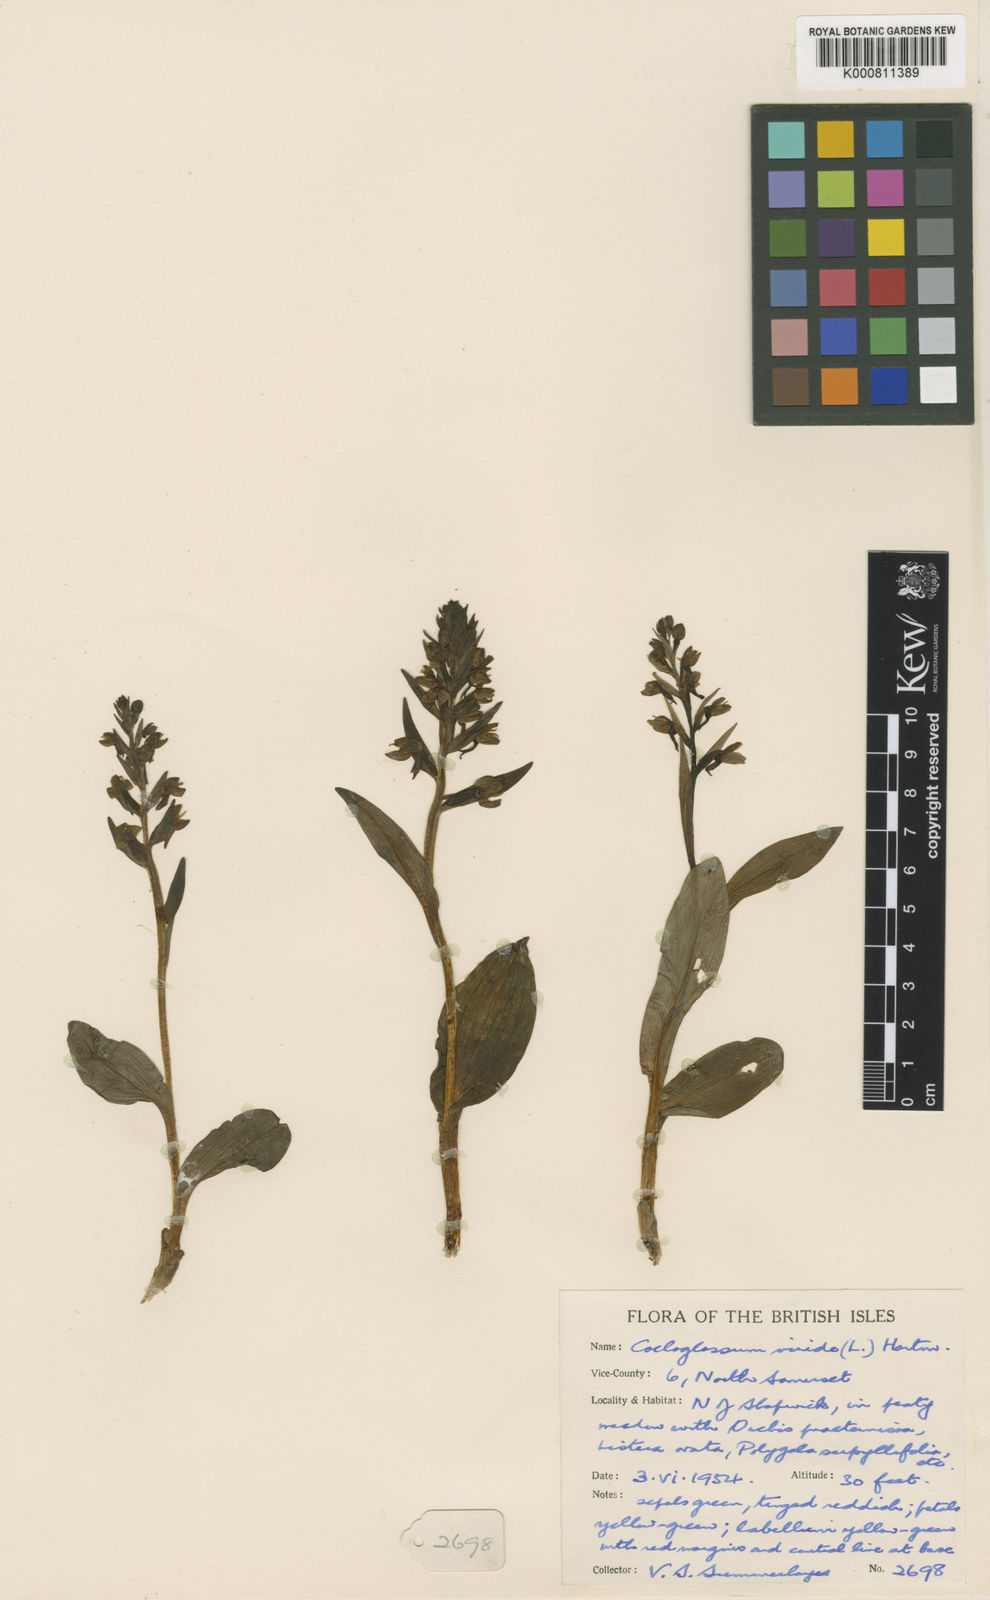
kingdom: Plantae
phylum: Tracheophyta
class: Liliopsida
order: Asparagales
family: Orchidaceae
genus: Dactylorhiza
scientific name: Dactylorhiza viridis
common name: Longbract frog orchid
